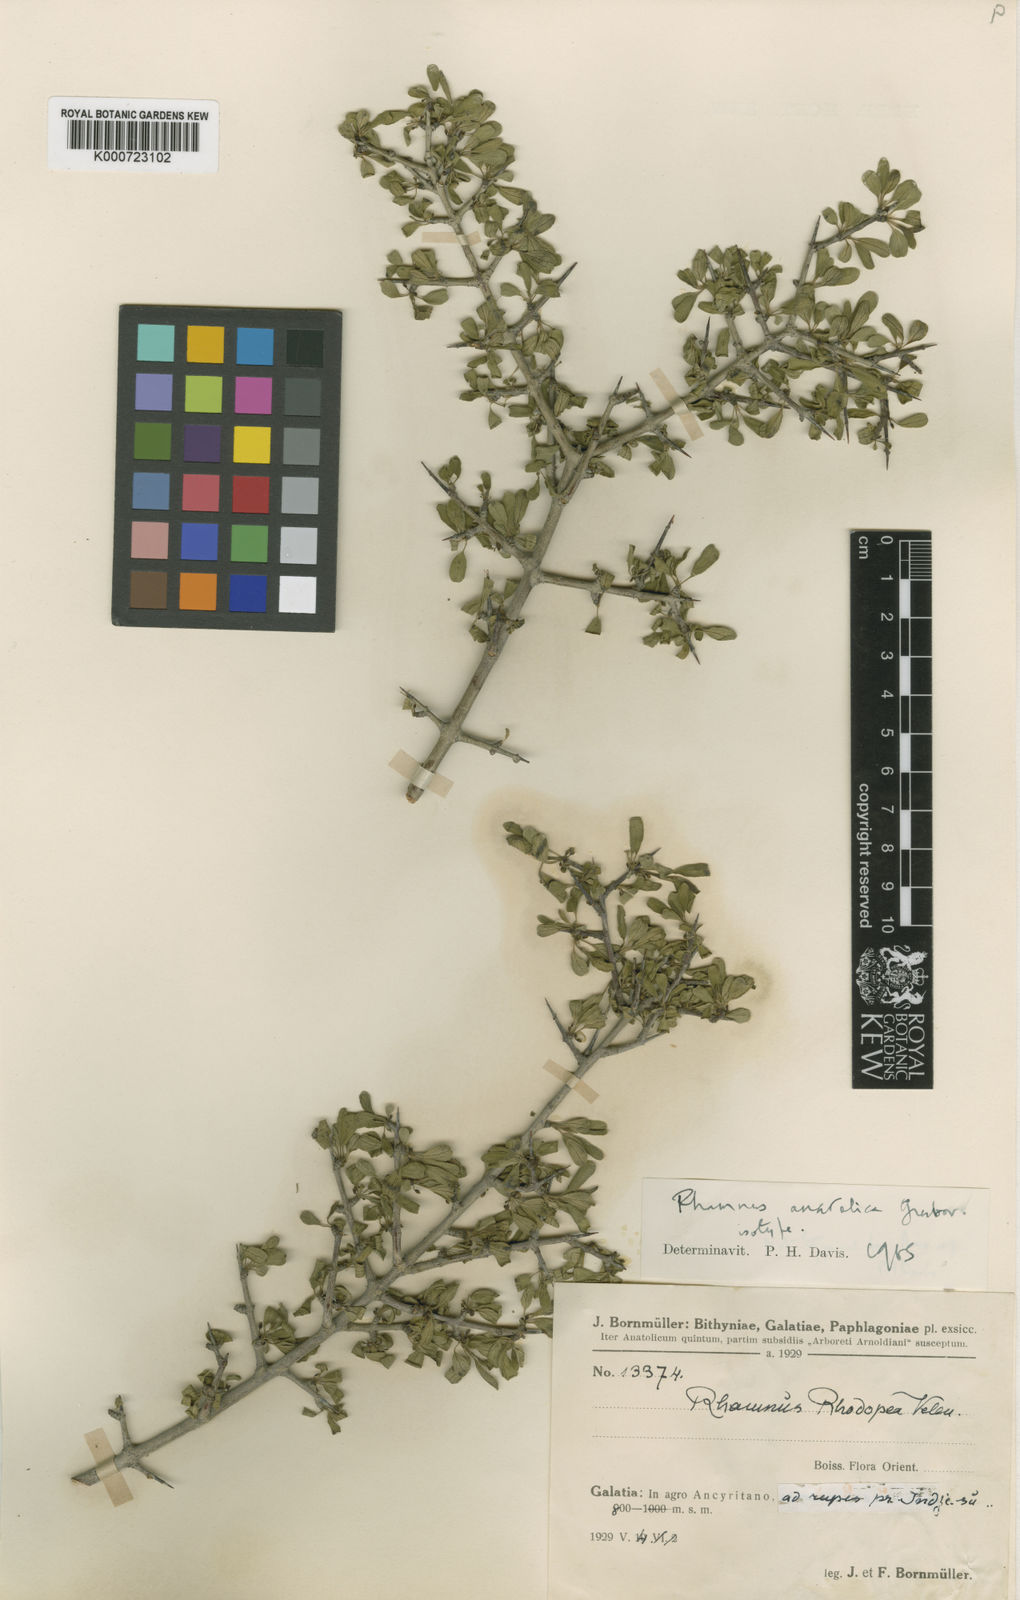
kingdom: Plantae
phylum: Tracheophyta
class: Magnoliopsida
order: Rosales
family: Rhamnaceae
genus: Rhamnus
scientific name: Rhamnus saxatilis
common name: Rock buckthorn
